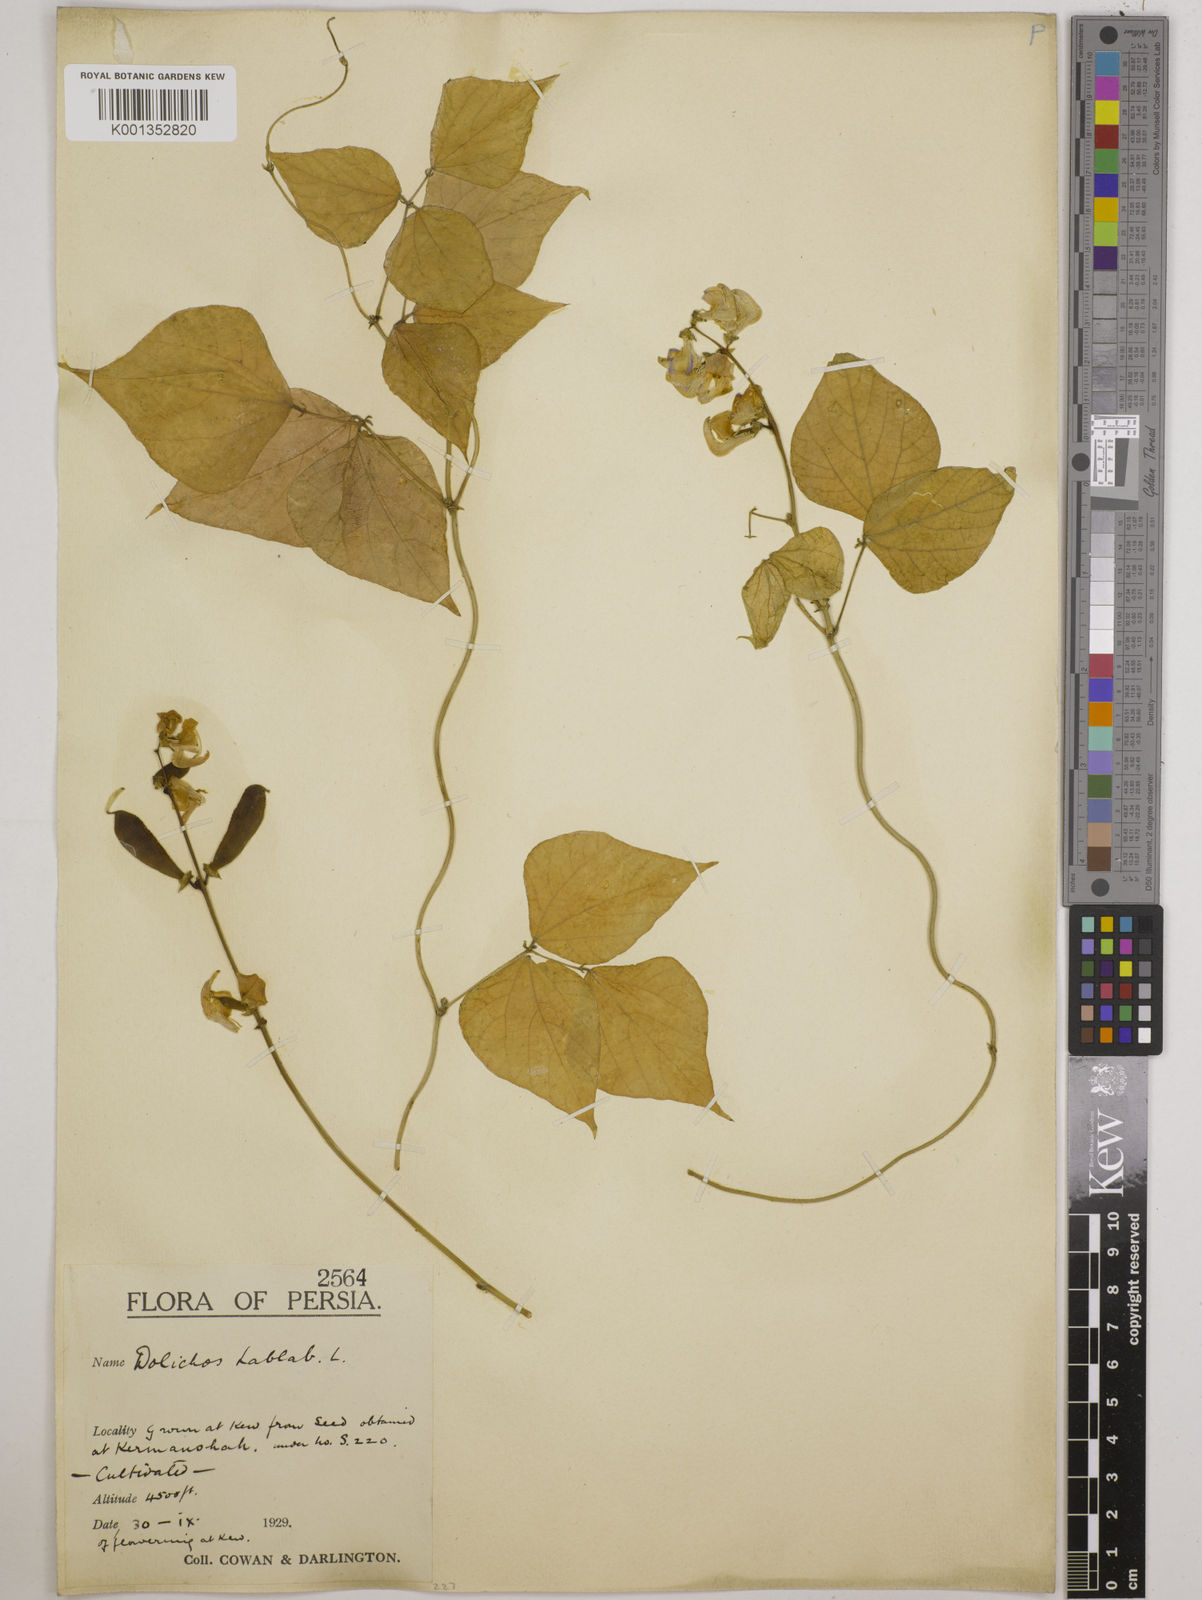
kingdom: Plantae
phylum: Tracheophyta
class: Magnoliopsida
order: Fabales
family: Fabaceae
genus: Lablab
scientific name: Lablab purpureus
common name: Lablab-bean
